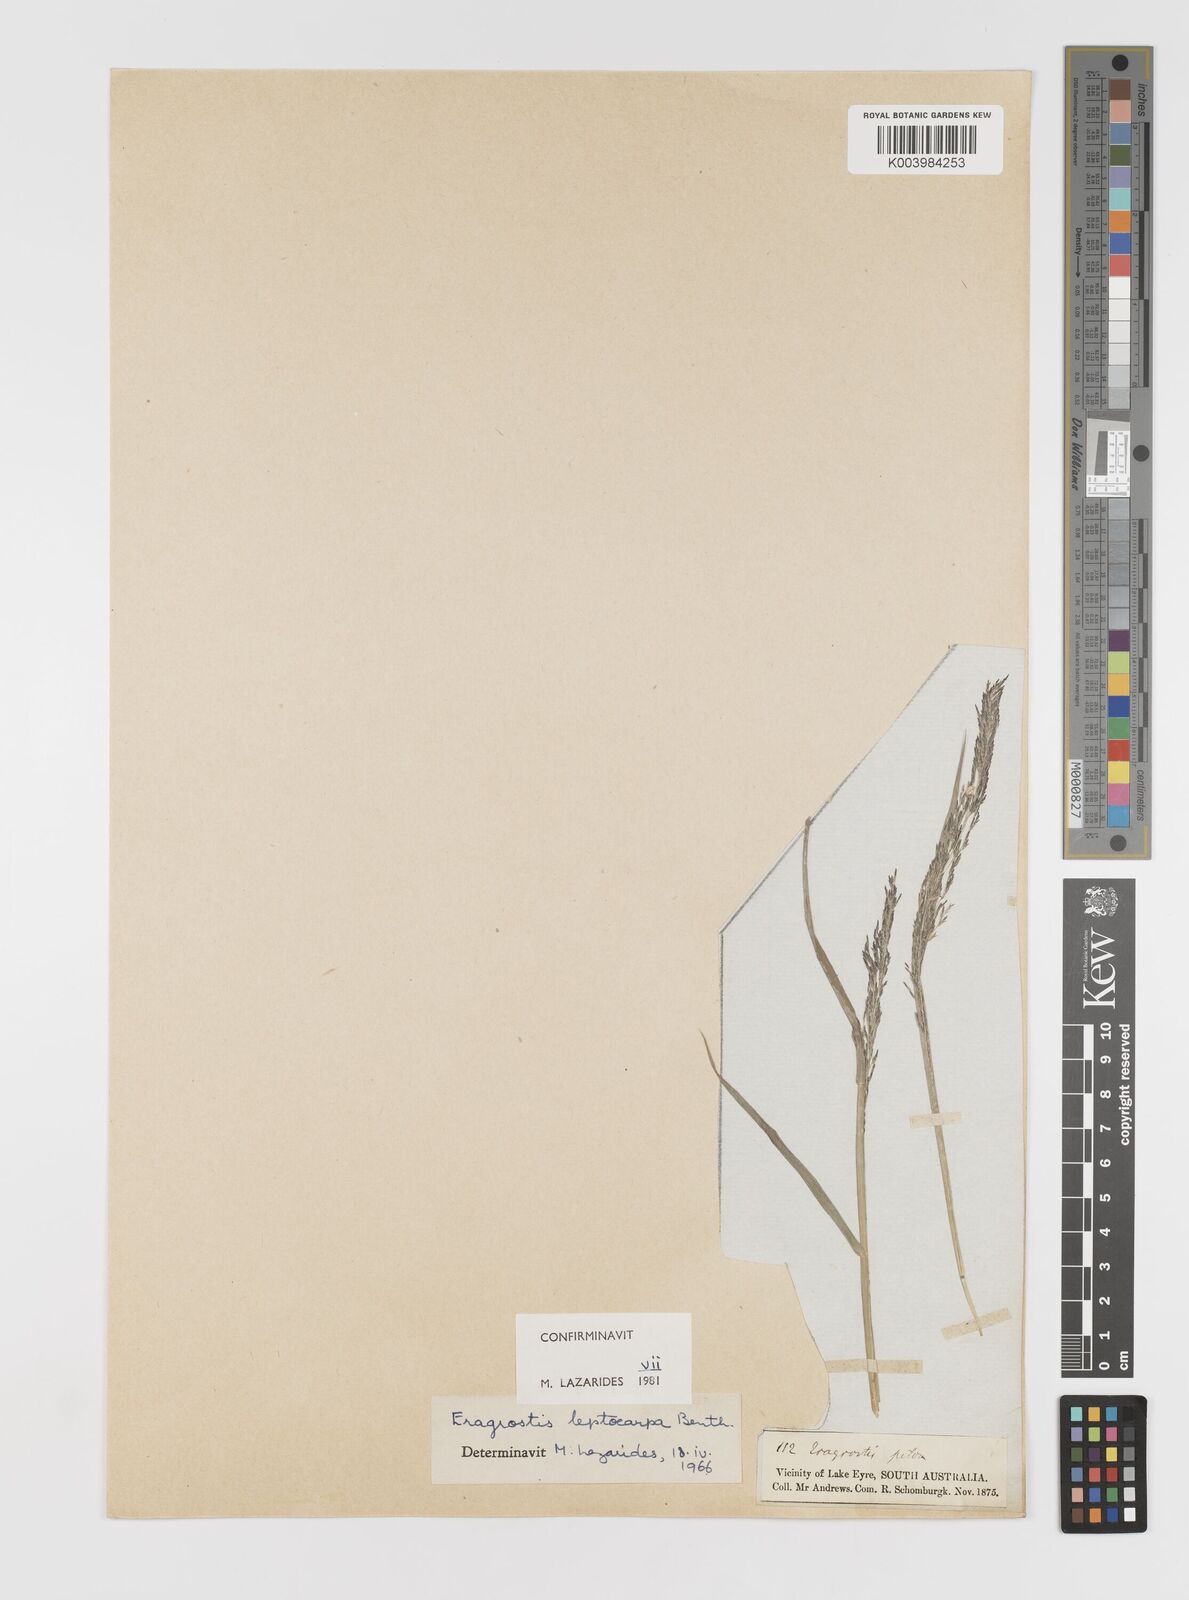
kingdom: Plantae
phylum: Tracheophyta
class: Liliopsida
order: Poales
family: Poaceae
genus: Eragrostis
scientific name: Eragrostis leptocarpa
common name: Drooping love grass
